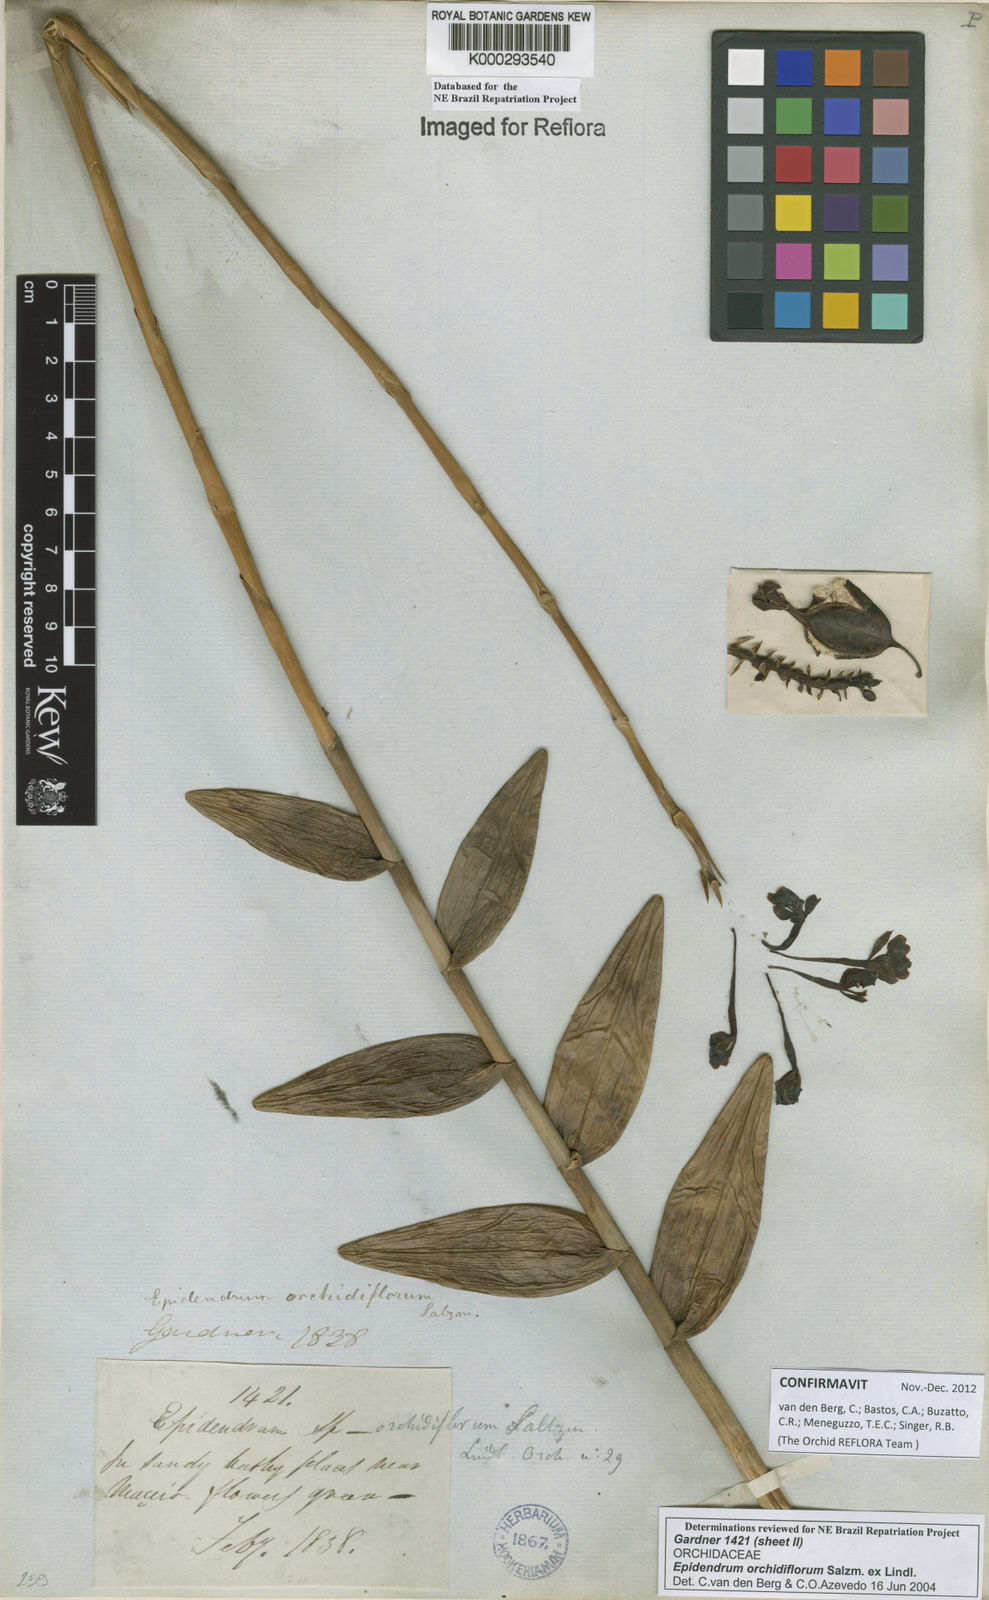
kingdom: Plantae
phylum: Tracheophyta
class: Liliopsida
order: Asparagales
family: Orchidaceae
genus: Epidendrum
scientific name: Epidendrum orchidiflorum
